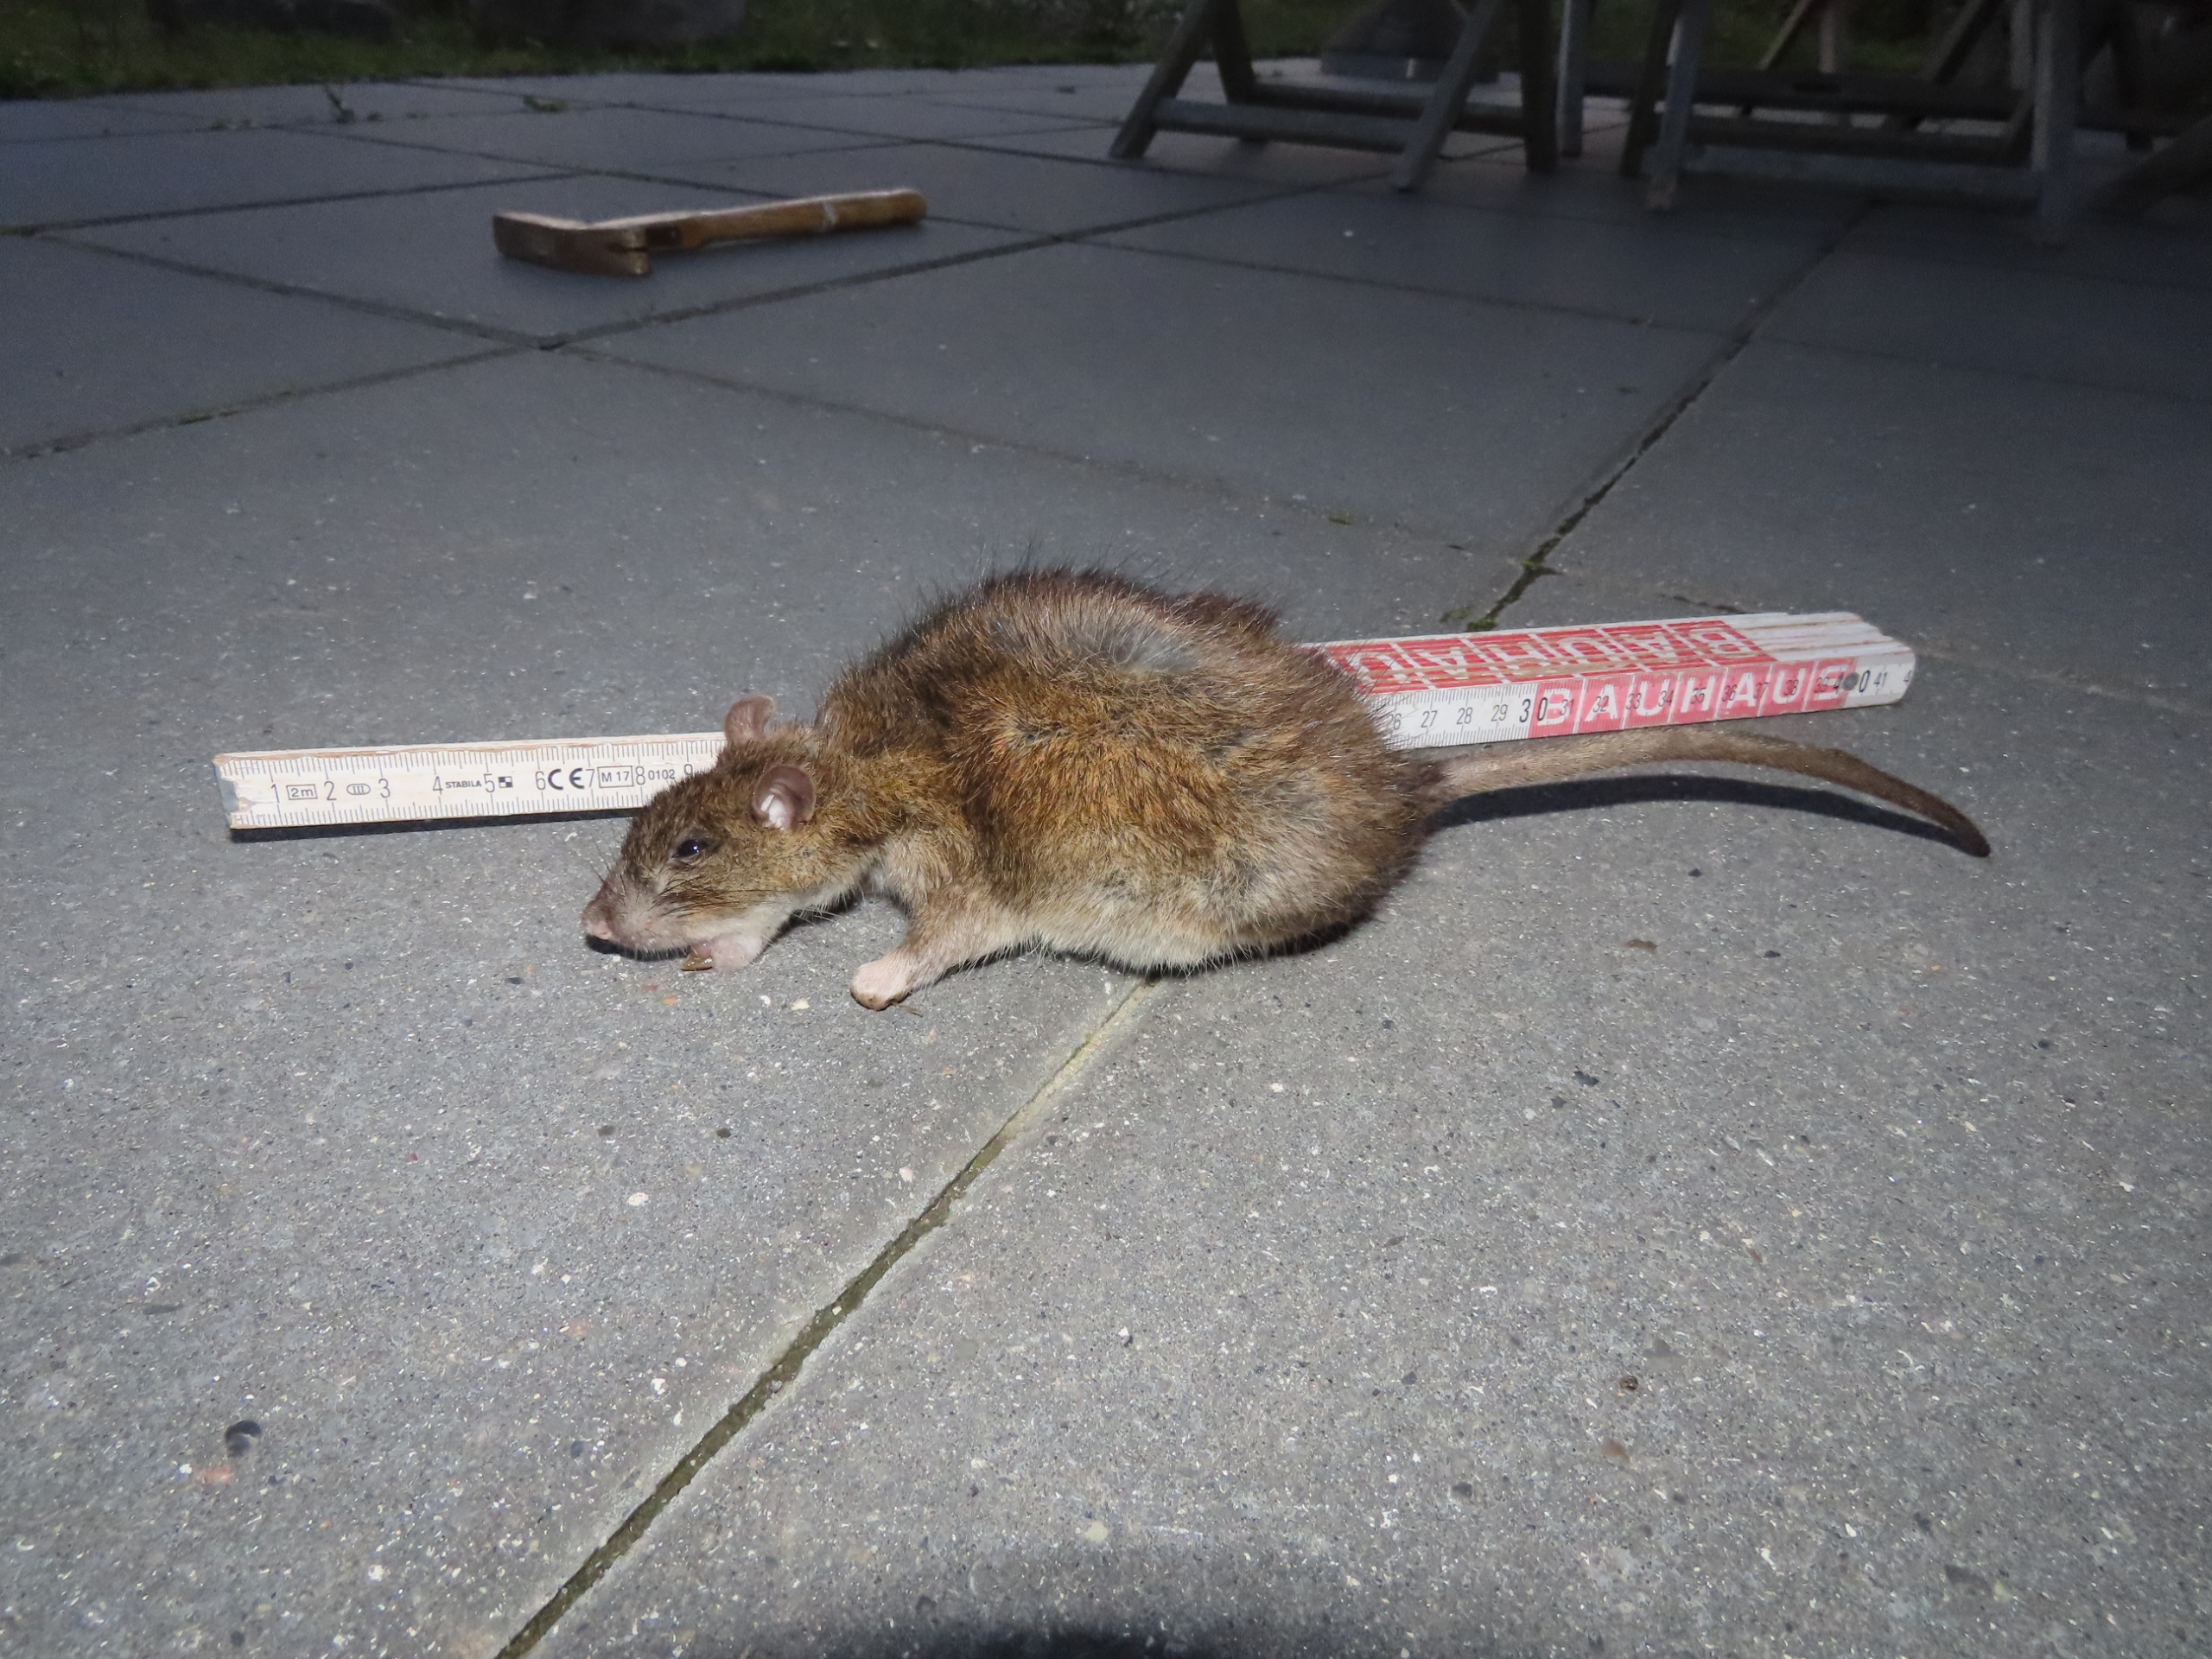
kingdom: Animalia
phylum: Chordata
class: Mammalia
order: Rodentia
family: Muridae
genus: Rattus
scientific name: Rattus norvegicus
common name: Brun rotte
